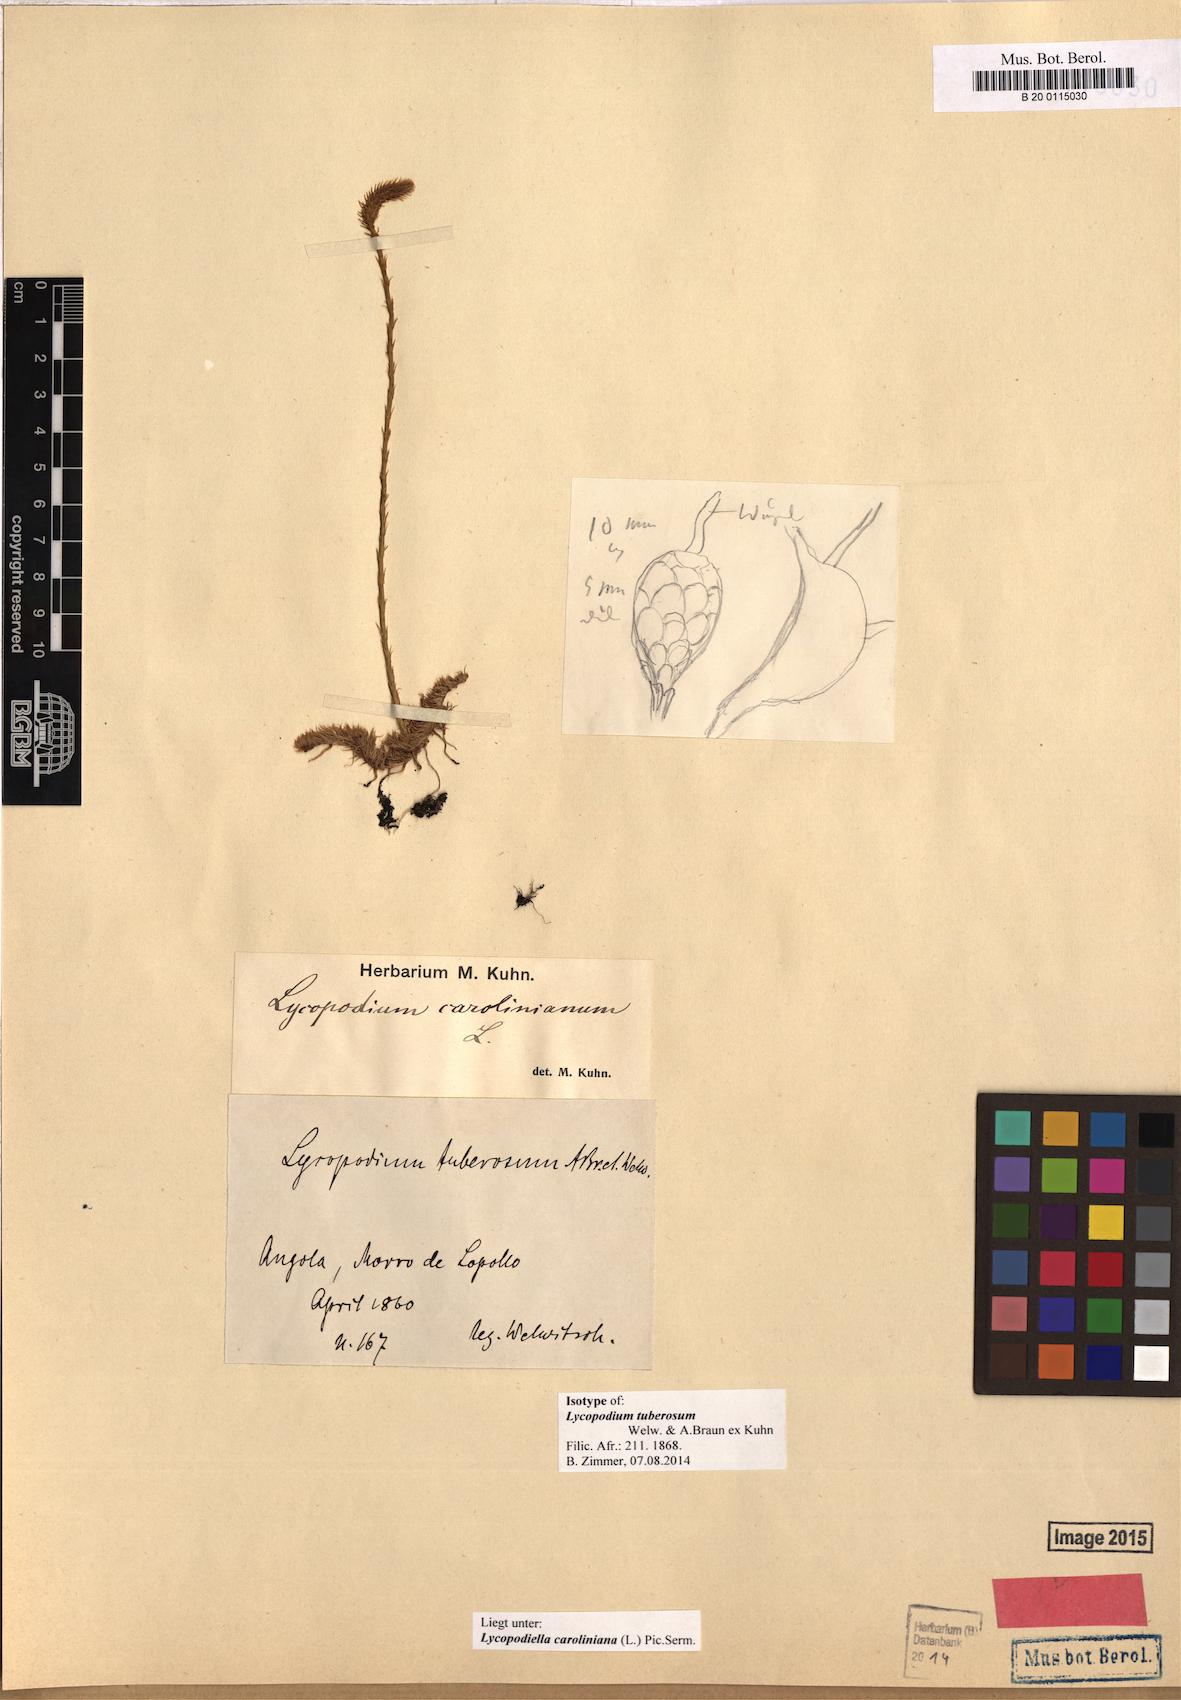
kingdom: Plantae
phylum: Tracheophyta
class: Lycopodiopsida
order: Lycopodiales
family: Lycopodiaceae
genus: Pseudolycopodiella
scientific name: Pseudolycopodiella caroliniana
